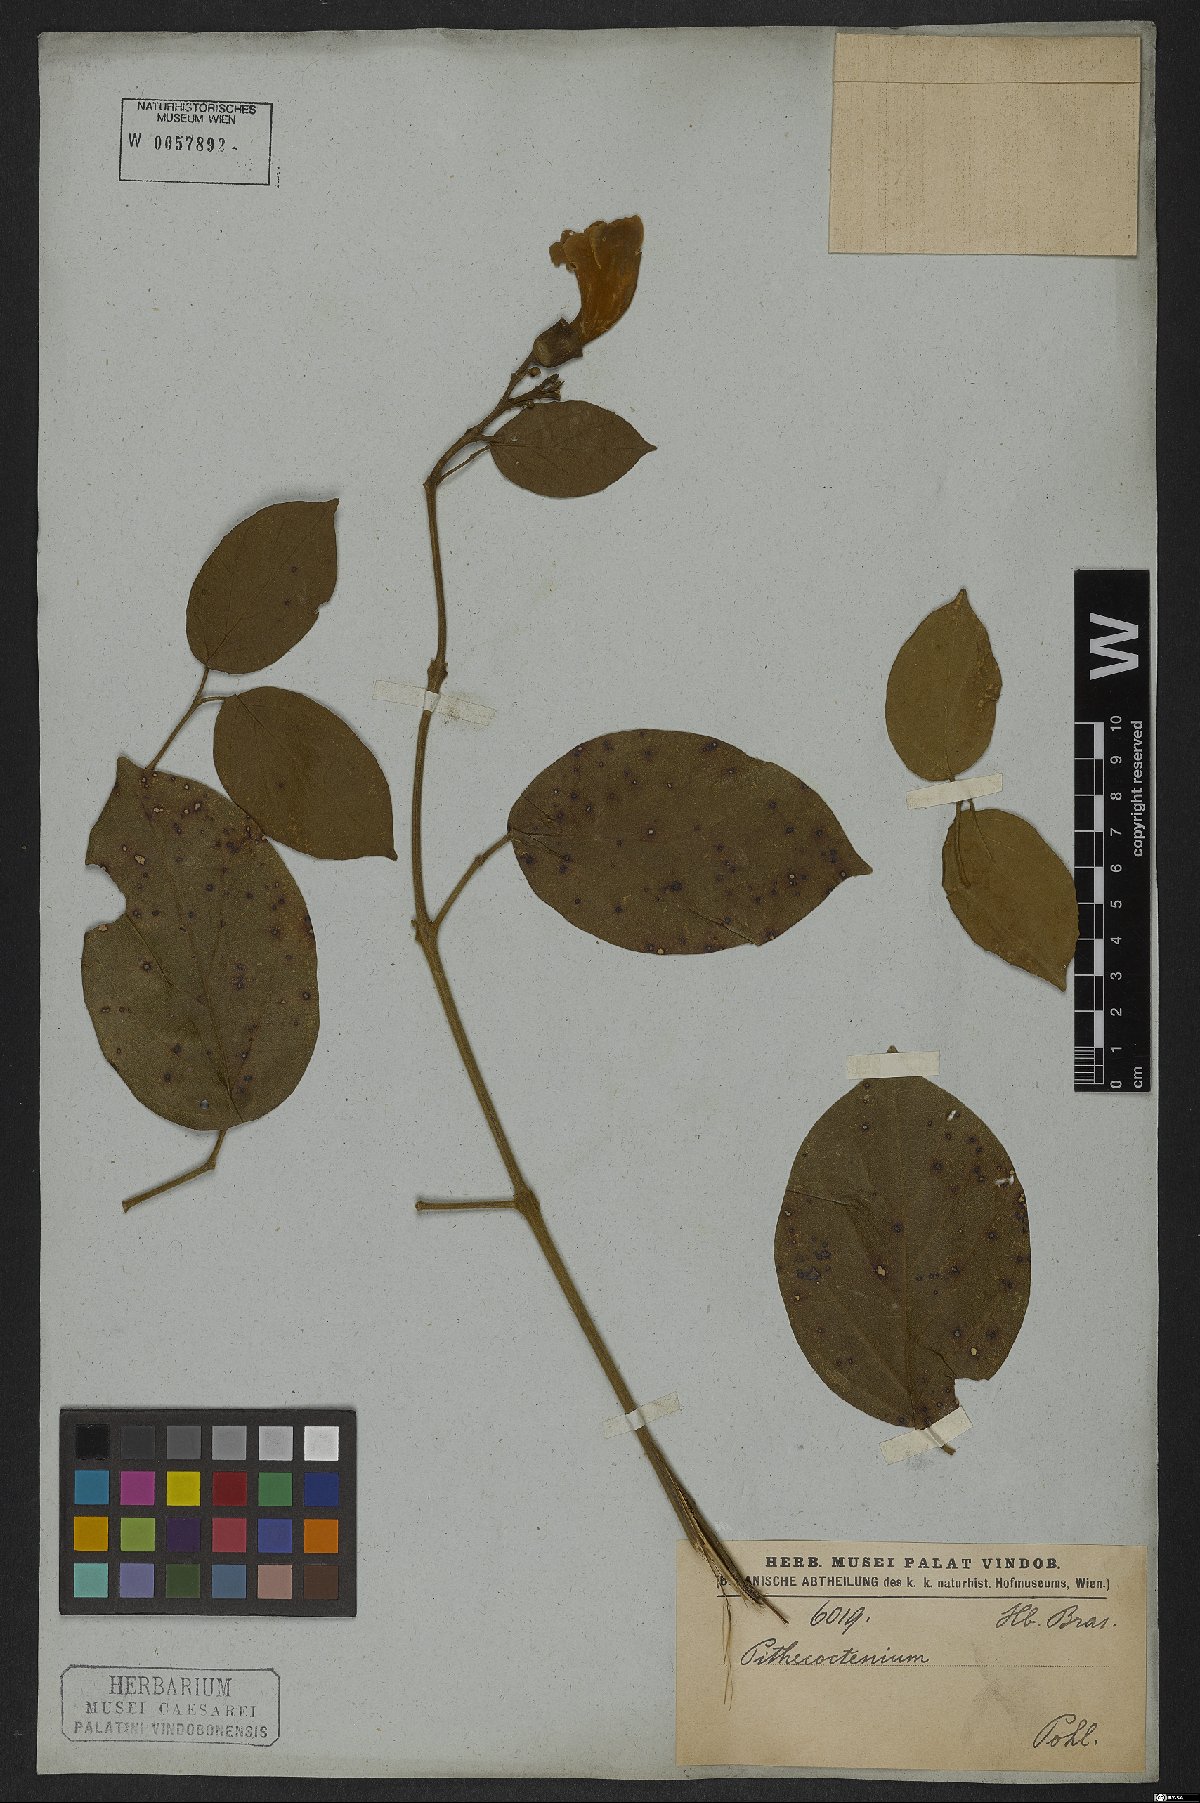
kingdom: Plantae
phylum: Tracheophyta
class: Magnoliopsida
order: Lamiales
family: Bignoniaceae
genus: Amphilophium
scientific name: Amphilophium mansoanum
